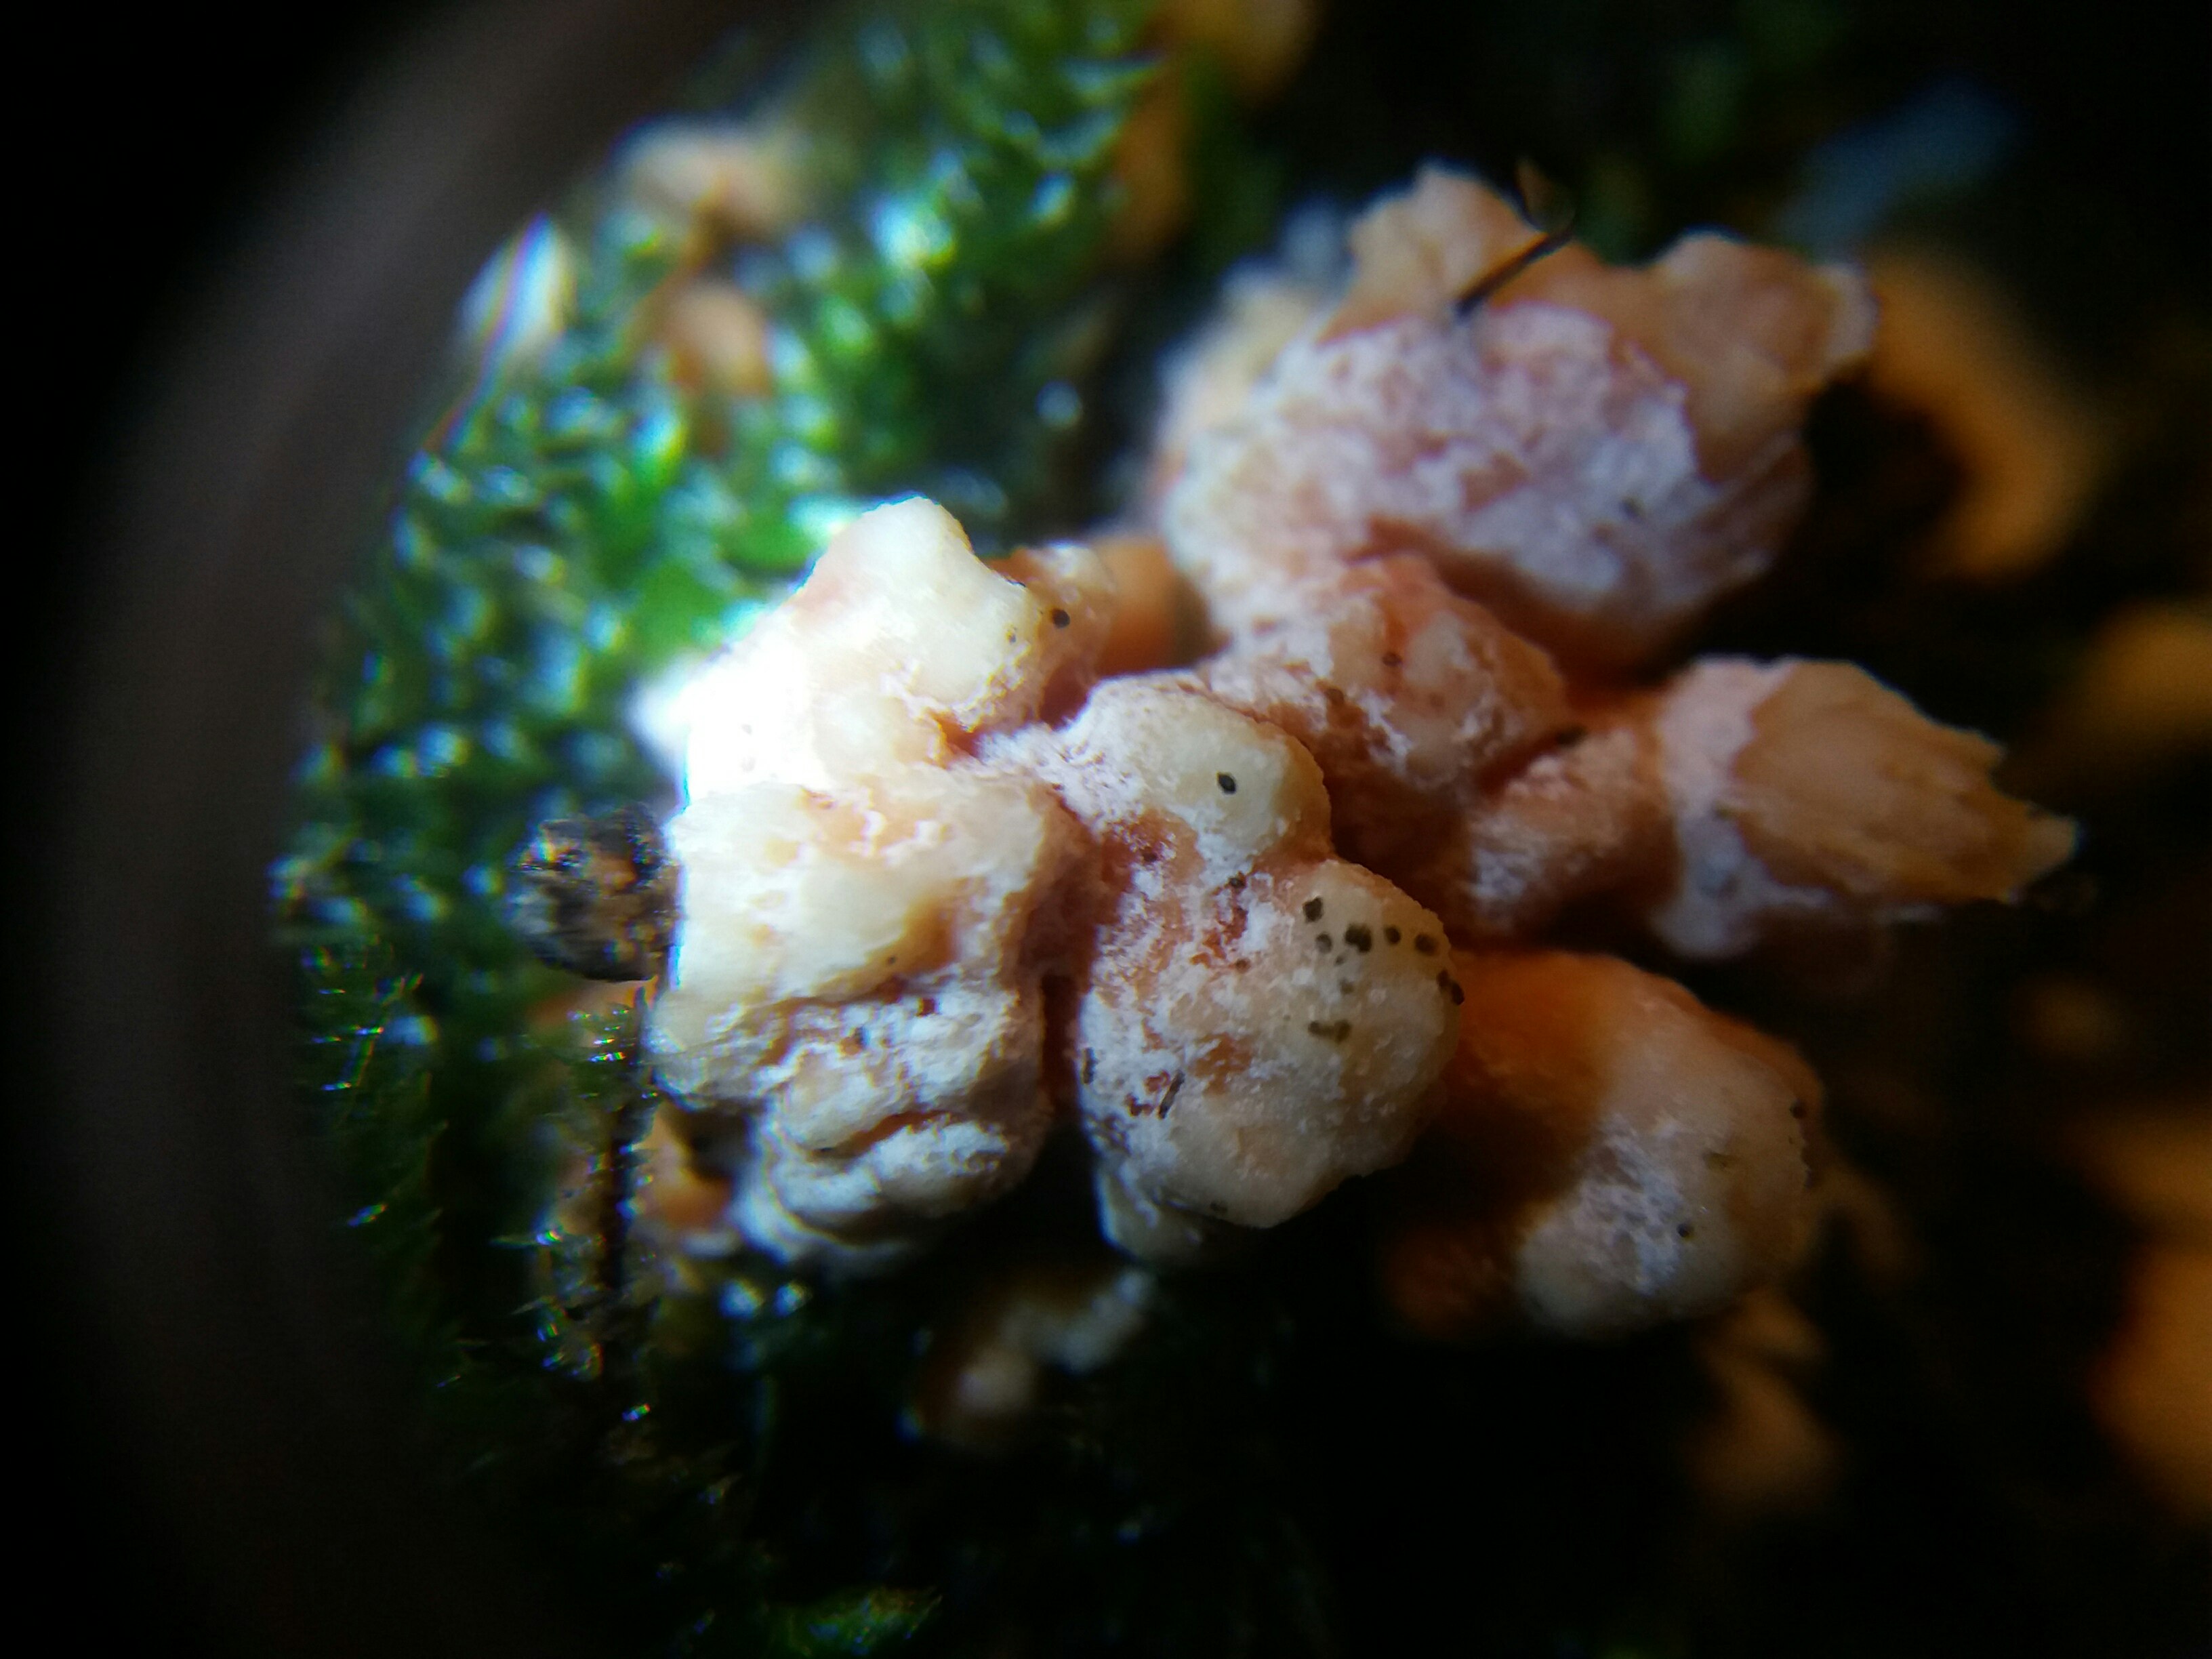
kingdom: Fungi
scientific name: Fungi
